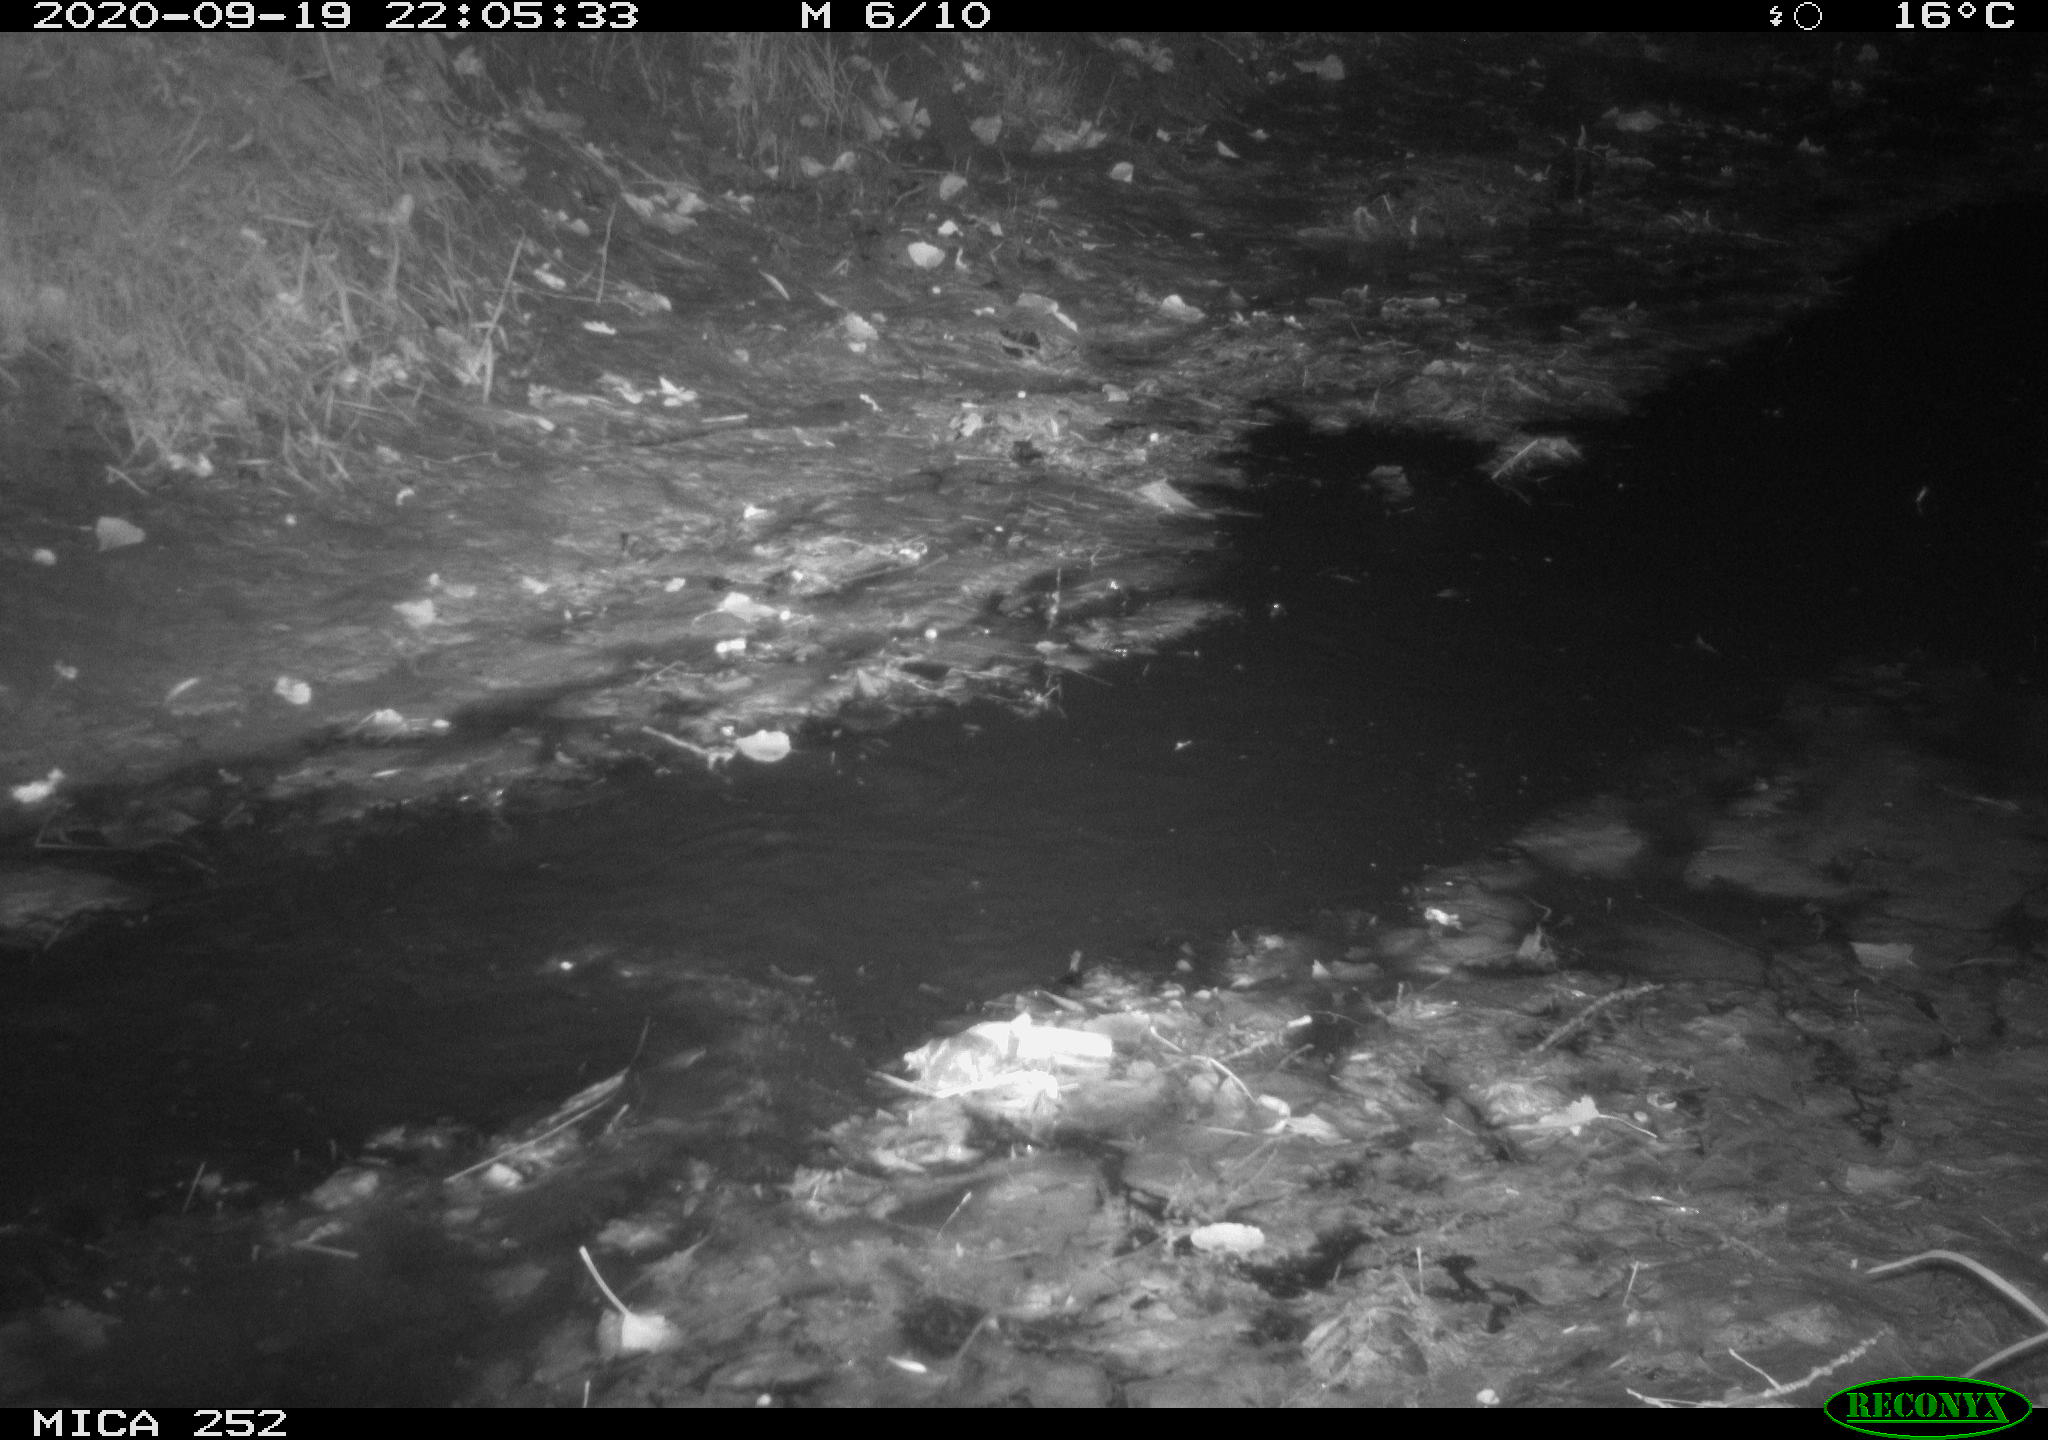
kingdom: Animalia
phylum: Chordata
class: Mammalia
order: Rodentia
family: Castoridae
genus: Castor
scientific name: Castor fiber
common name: Eurasian beaver
